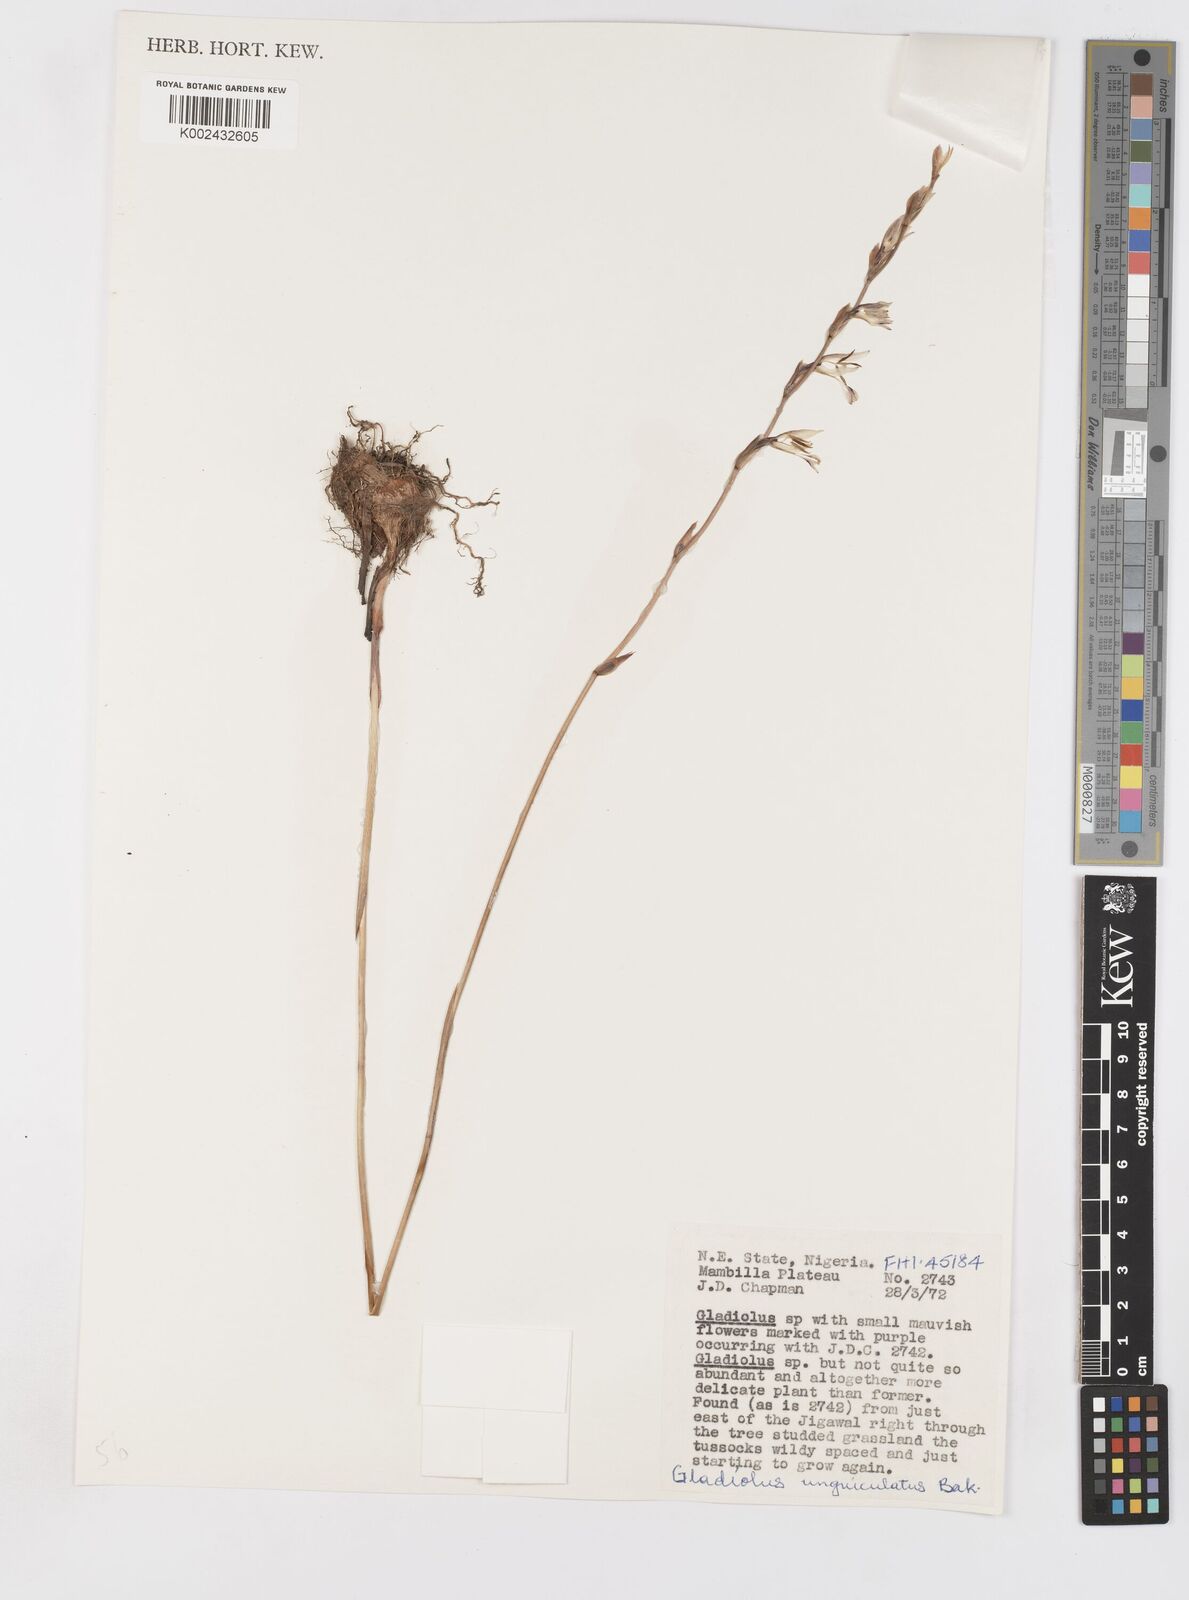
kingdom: Plantae
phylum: Tracheophyta
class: Liliopsida
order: Asparagales
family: Iridaceae
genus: Gladiolus
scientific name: Gladiolus unguiculatus
